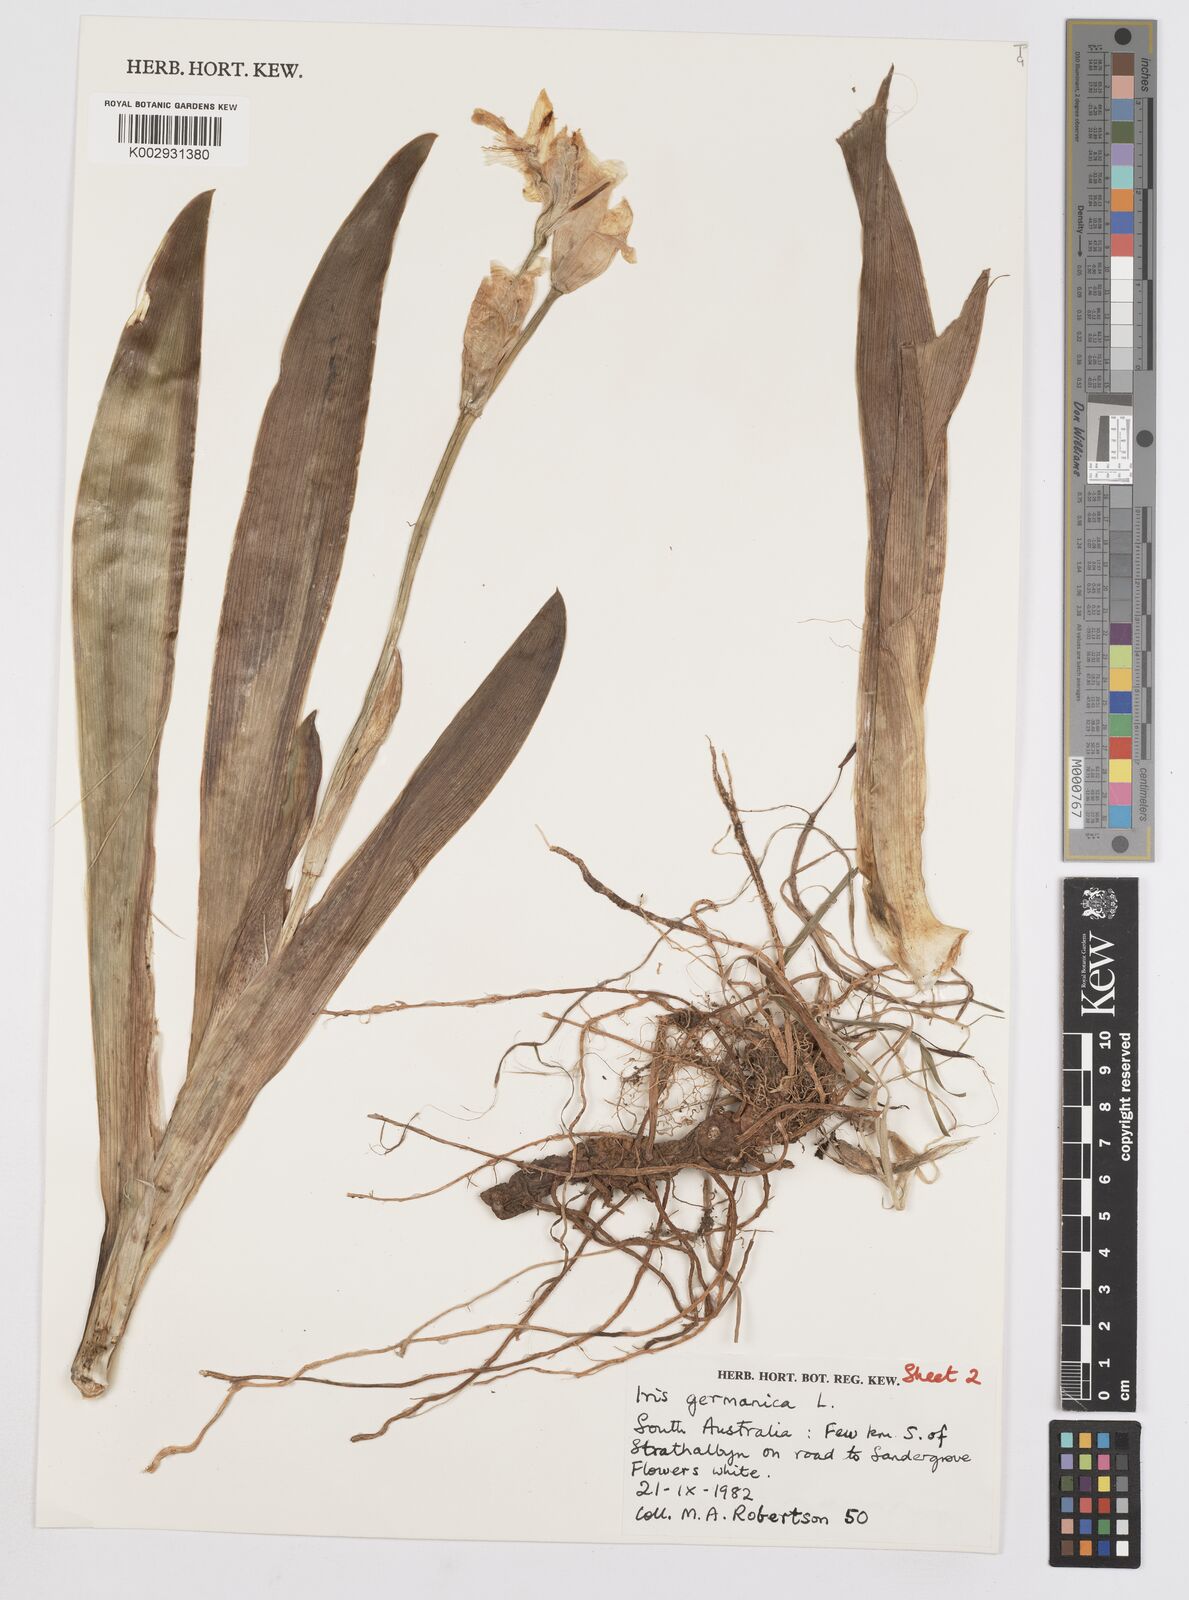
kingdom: Plantae
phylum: Tracheophyta
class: Liliopsida
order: Asparagales
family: Iridaceae
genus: Iris
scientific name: Iris germanica
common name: German iris
